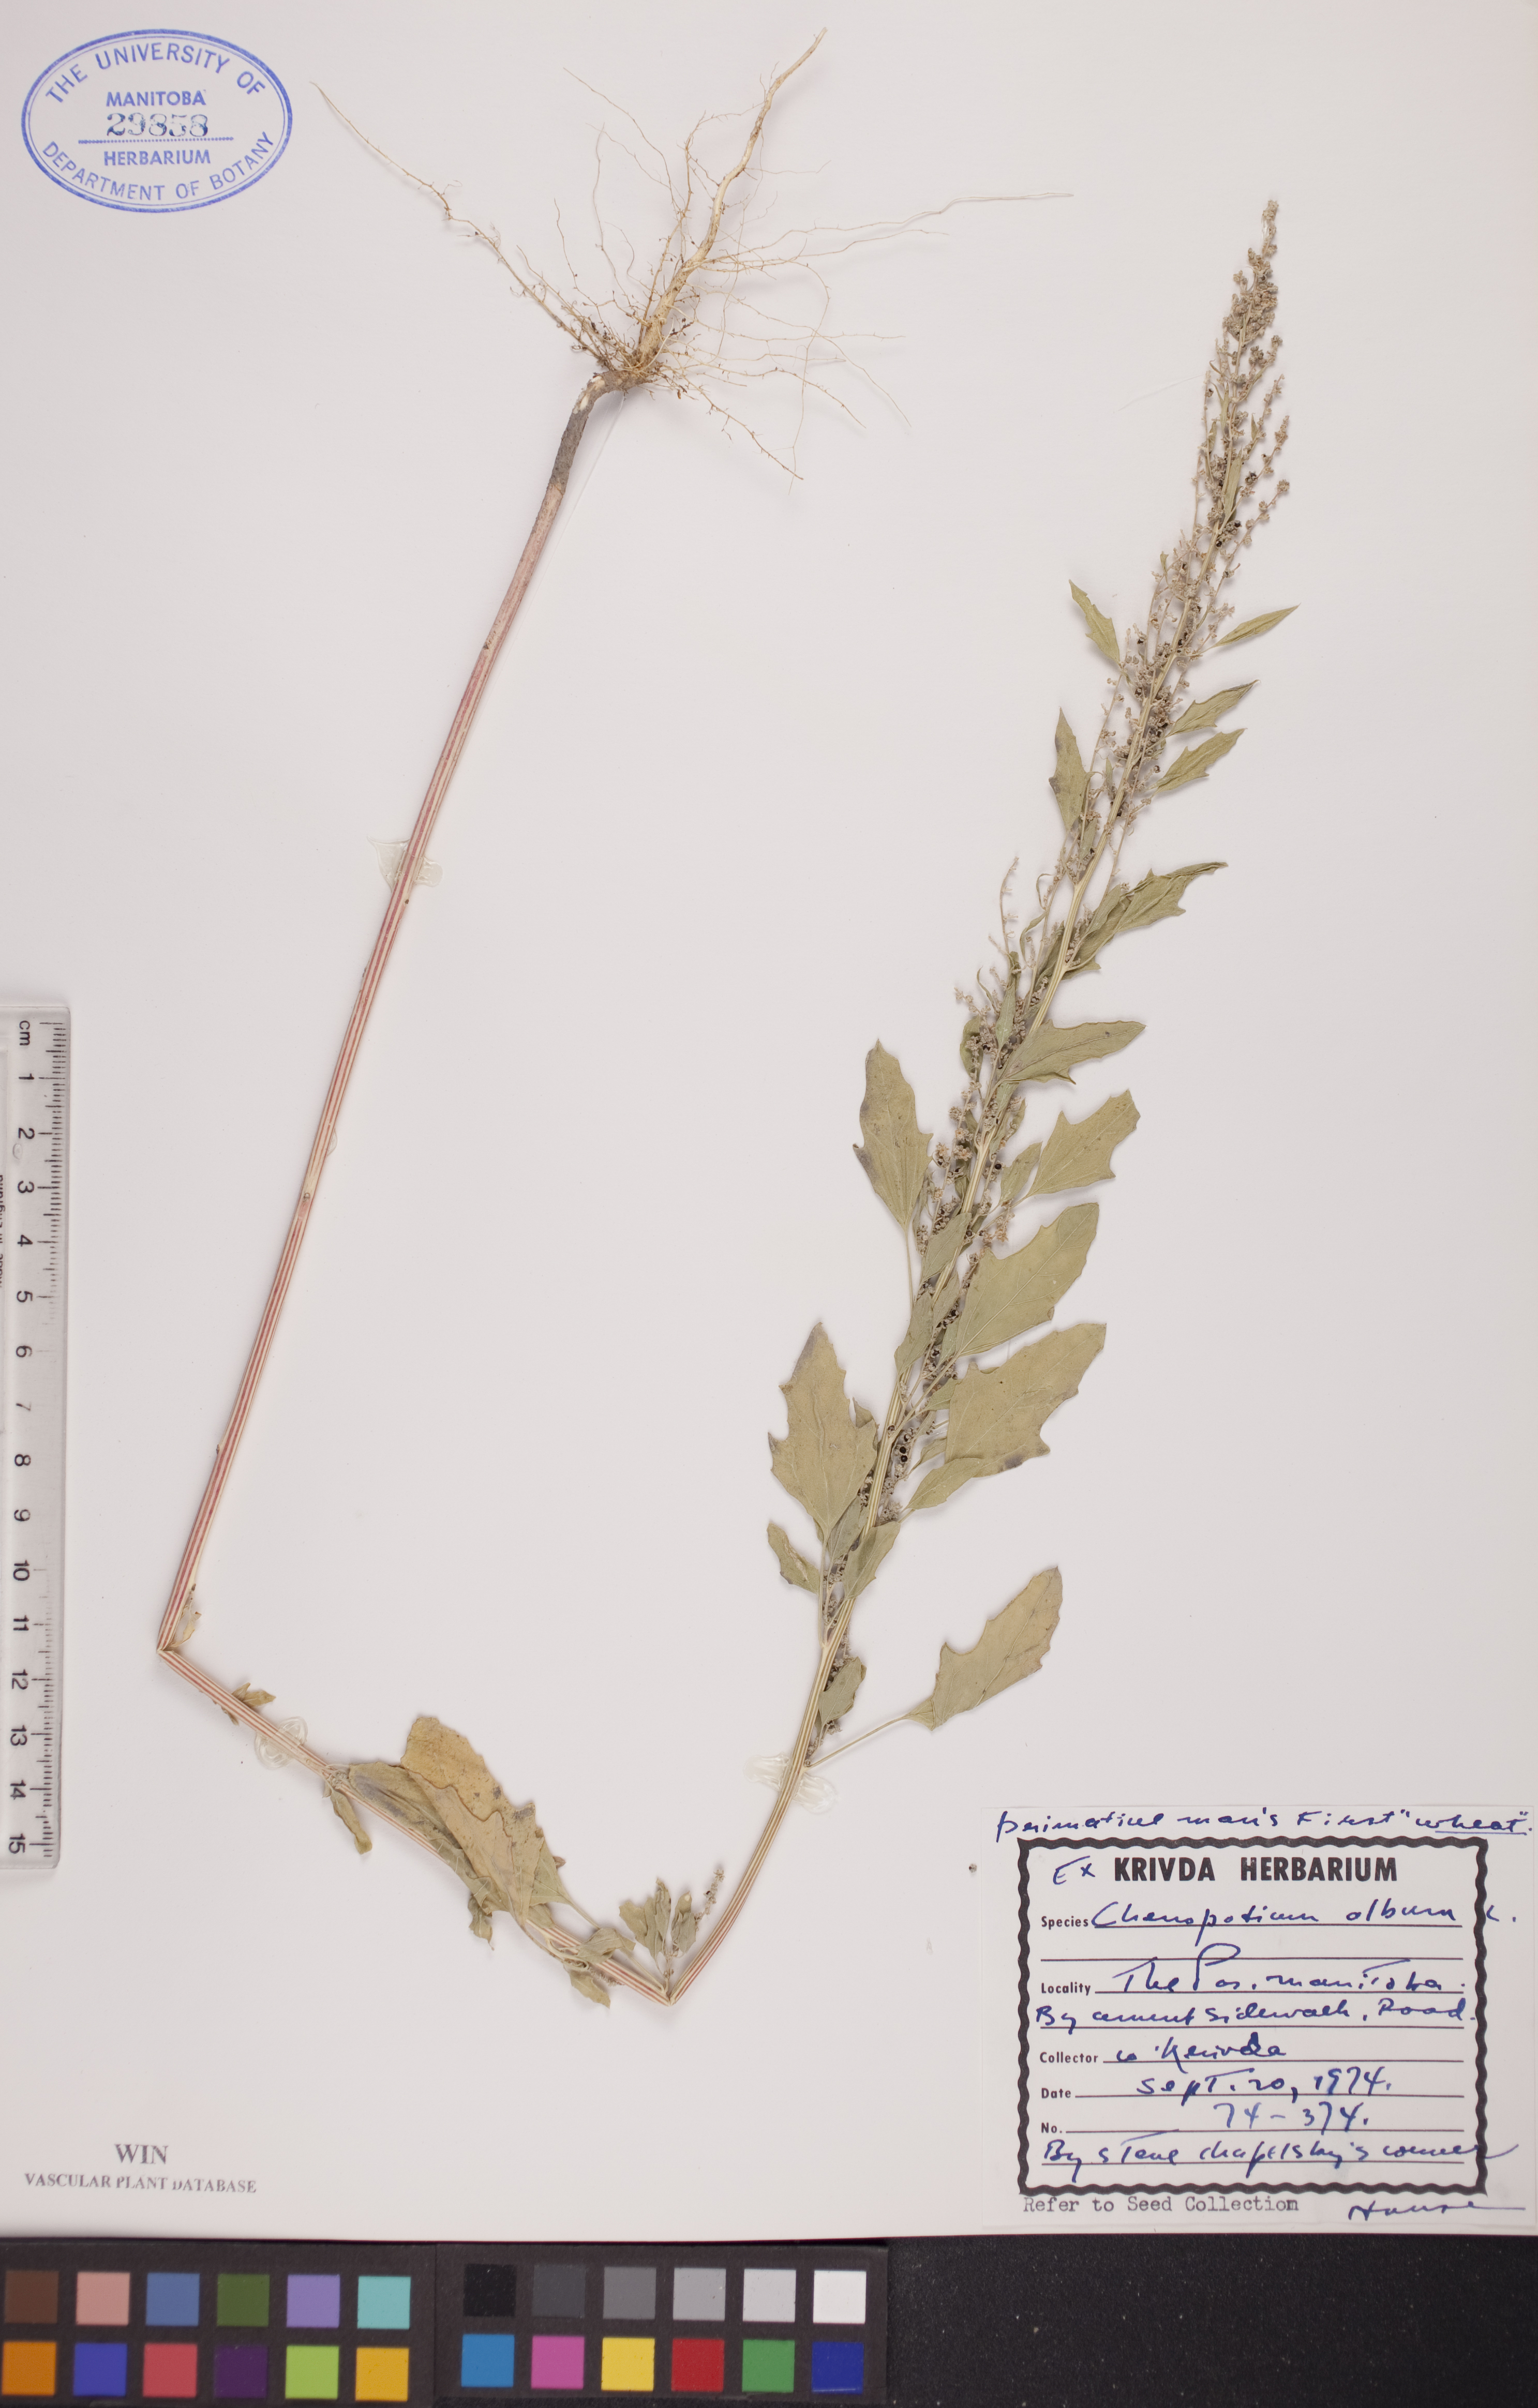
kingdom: Plantae
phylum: Tracheophyta
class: Magnoliopsida
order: Caryophyllales
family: Amaranthaceae
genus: Chenopodium
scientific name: Chenopodium album
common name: Fat-hen
